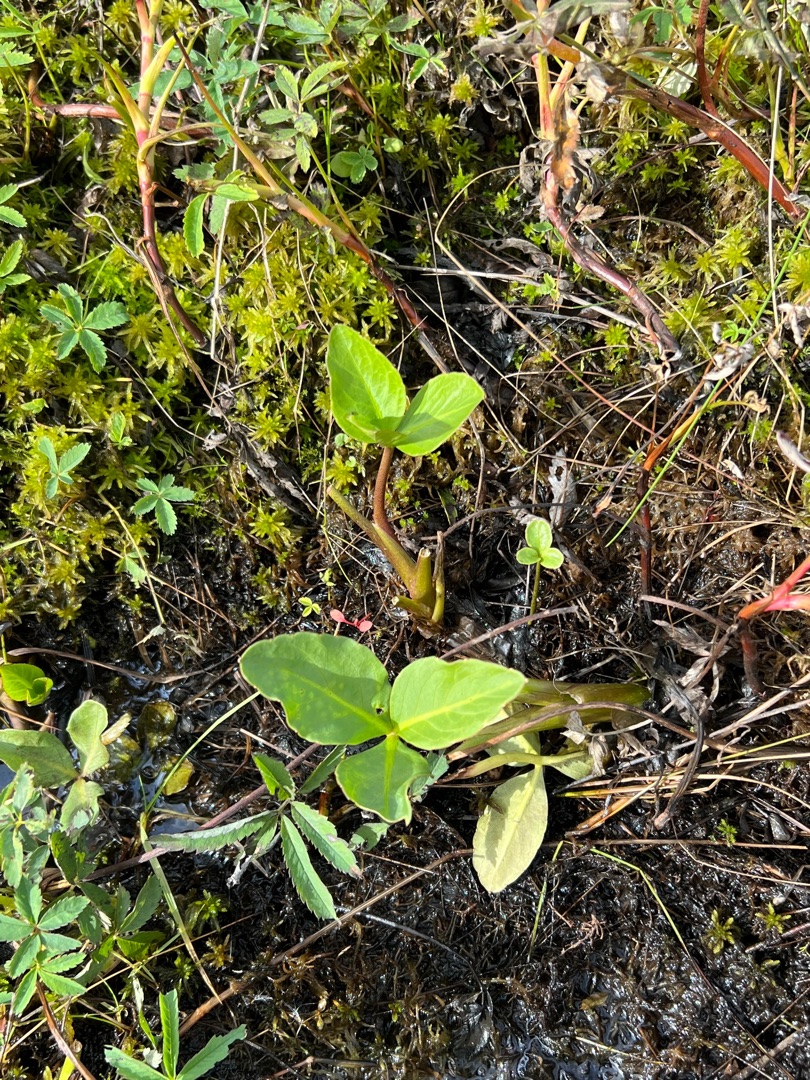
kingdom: Plantae
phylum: Tracheophyta
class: Magnoliopsida
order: Asterales
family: Menyanthaceae
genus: Menyanthes
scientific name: Menyanthes trifoliata
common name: Bukkeblad
